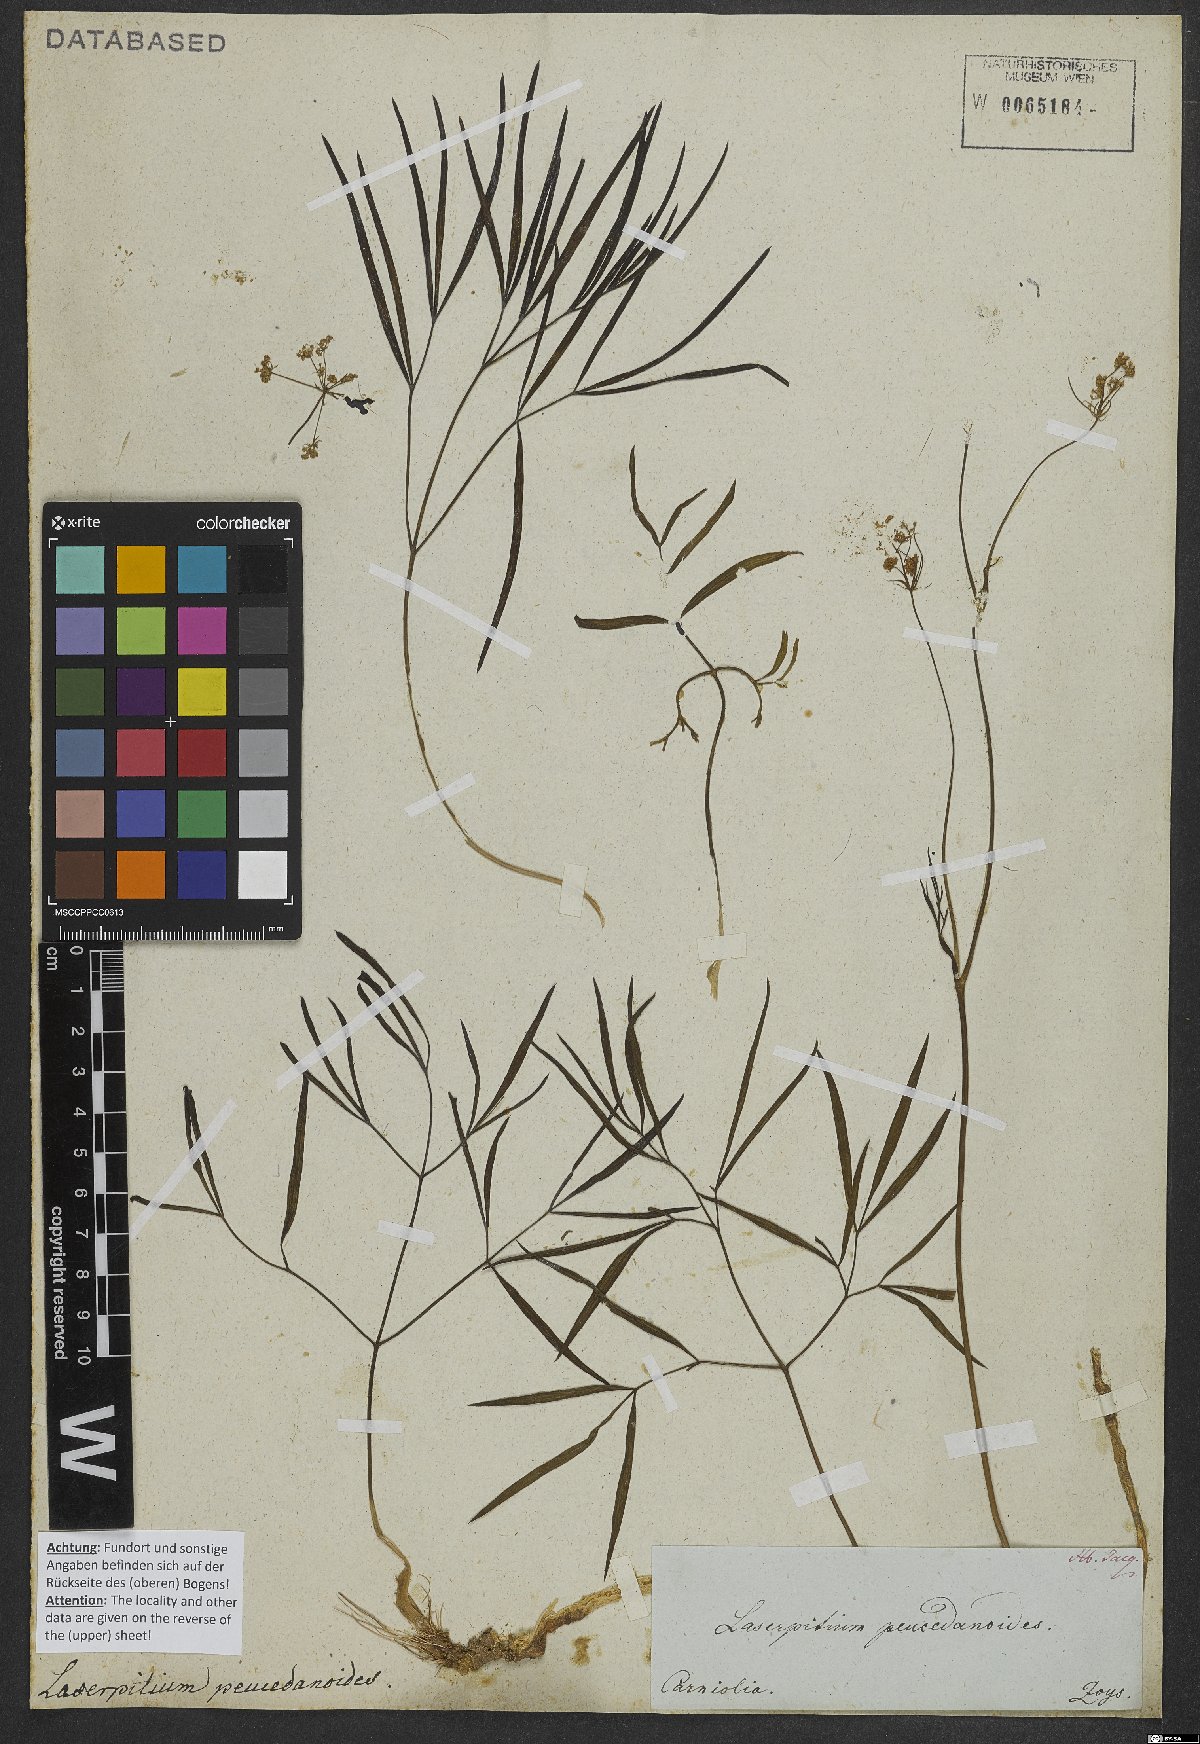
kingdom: Plantae
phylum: Tracheophyta
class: Magnoliopsida
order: Apiales
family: Apiaceae
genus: Laserpitium
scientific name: Laserpitium peucedanoides
